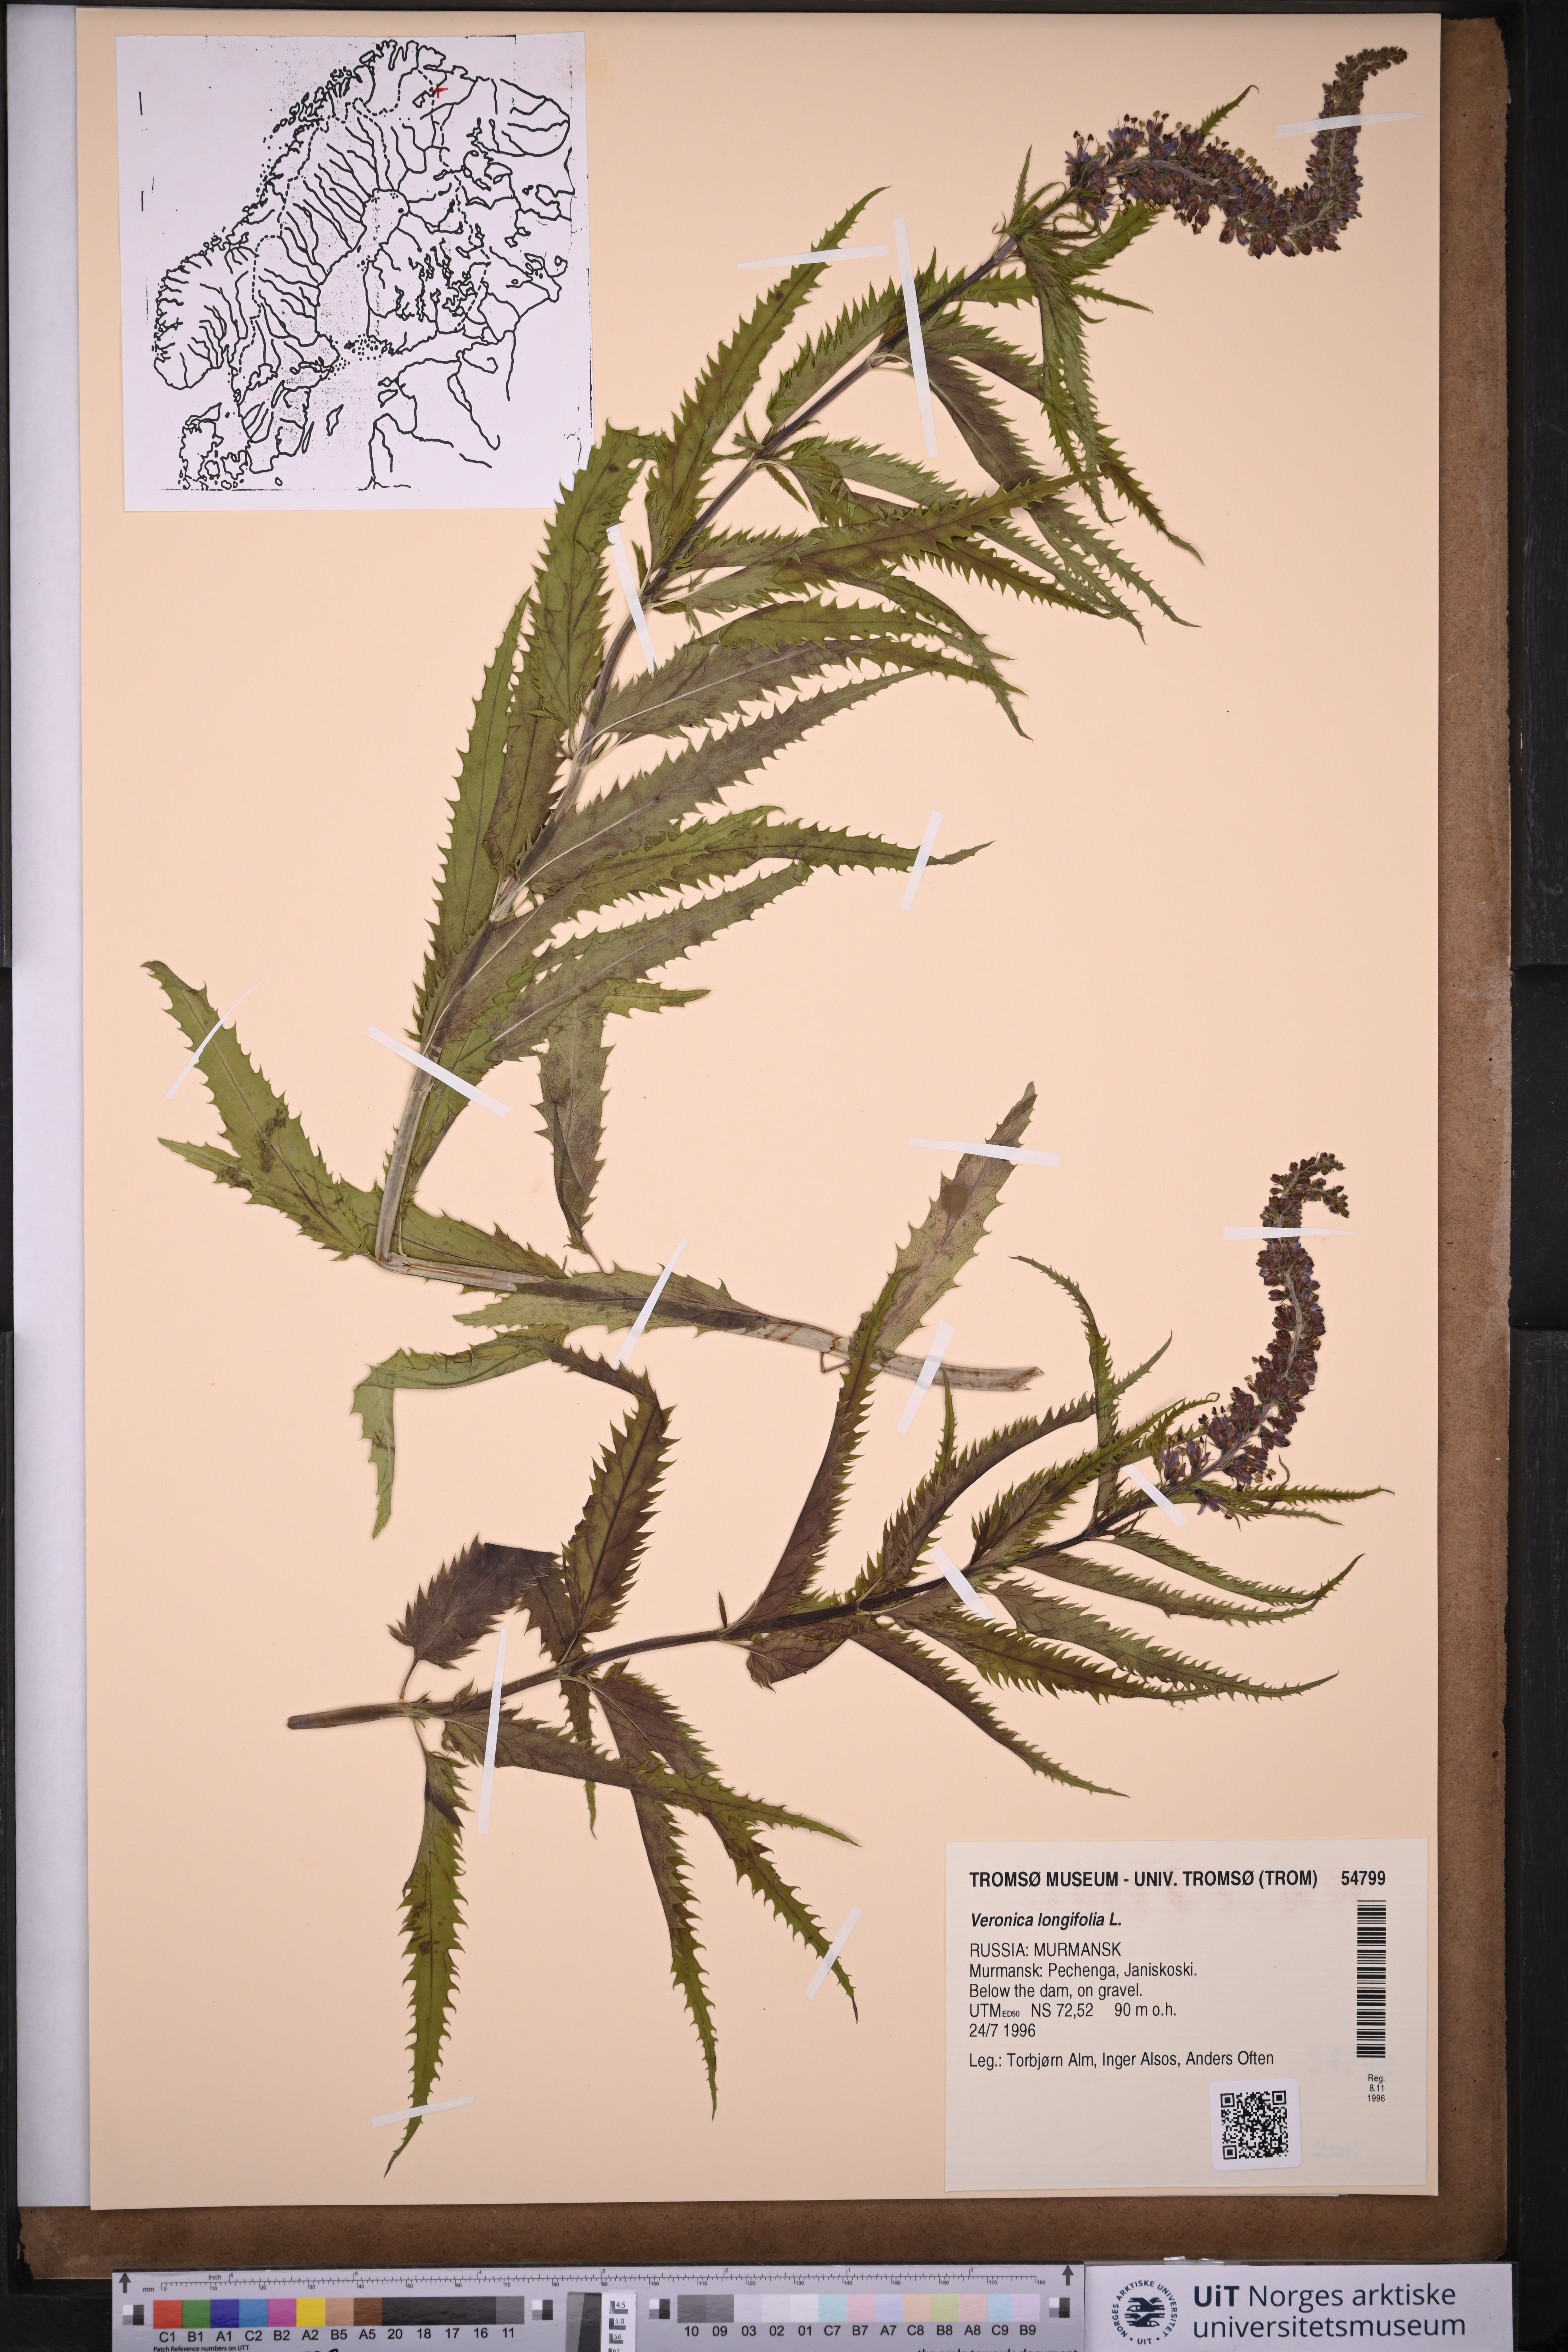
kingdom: Plantae
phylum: Tracheophyta
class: Magnoliopsida
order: Lamiales
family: Plantaginaceae
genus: Veronica
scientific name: Veronica longifolia
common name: Garden speedwell
